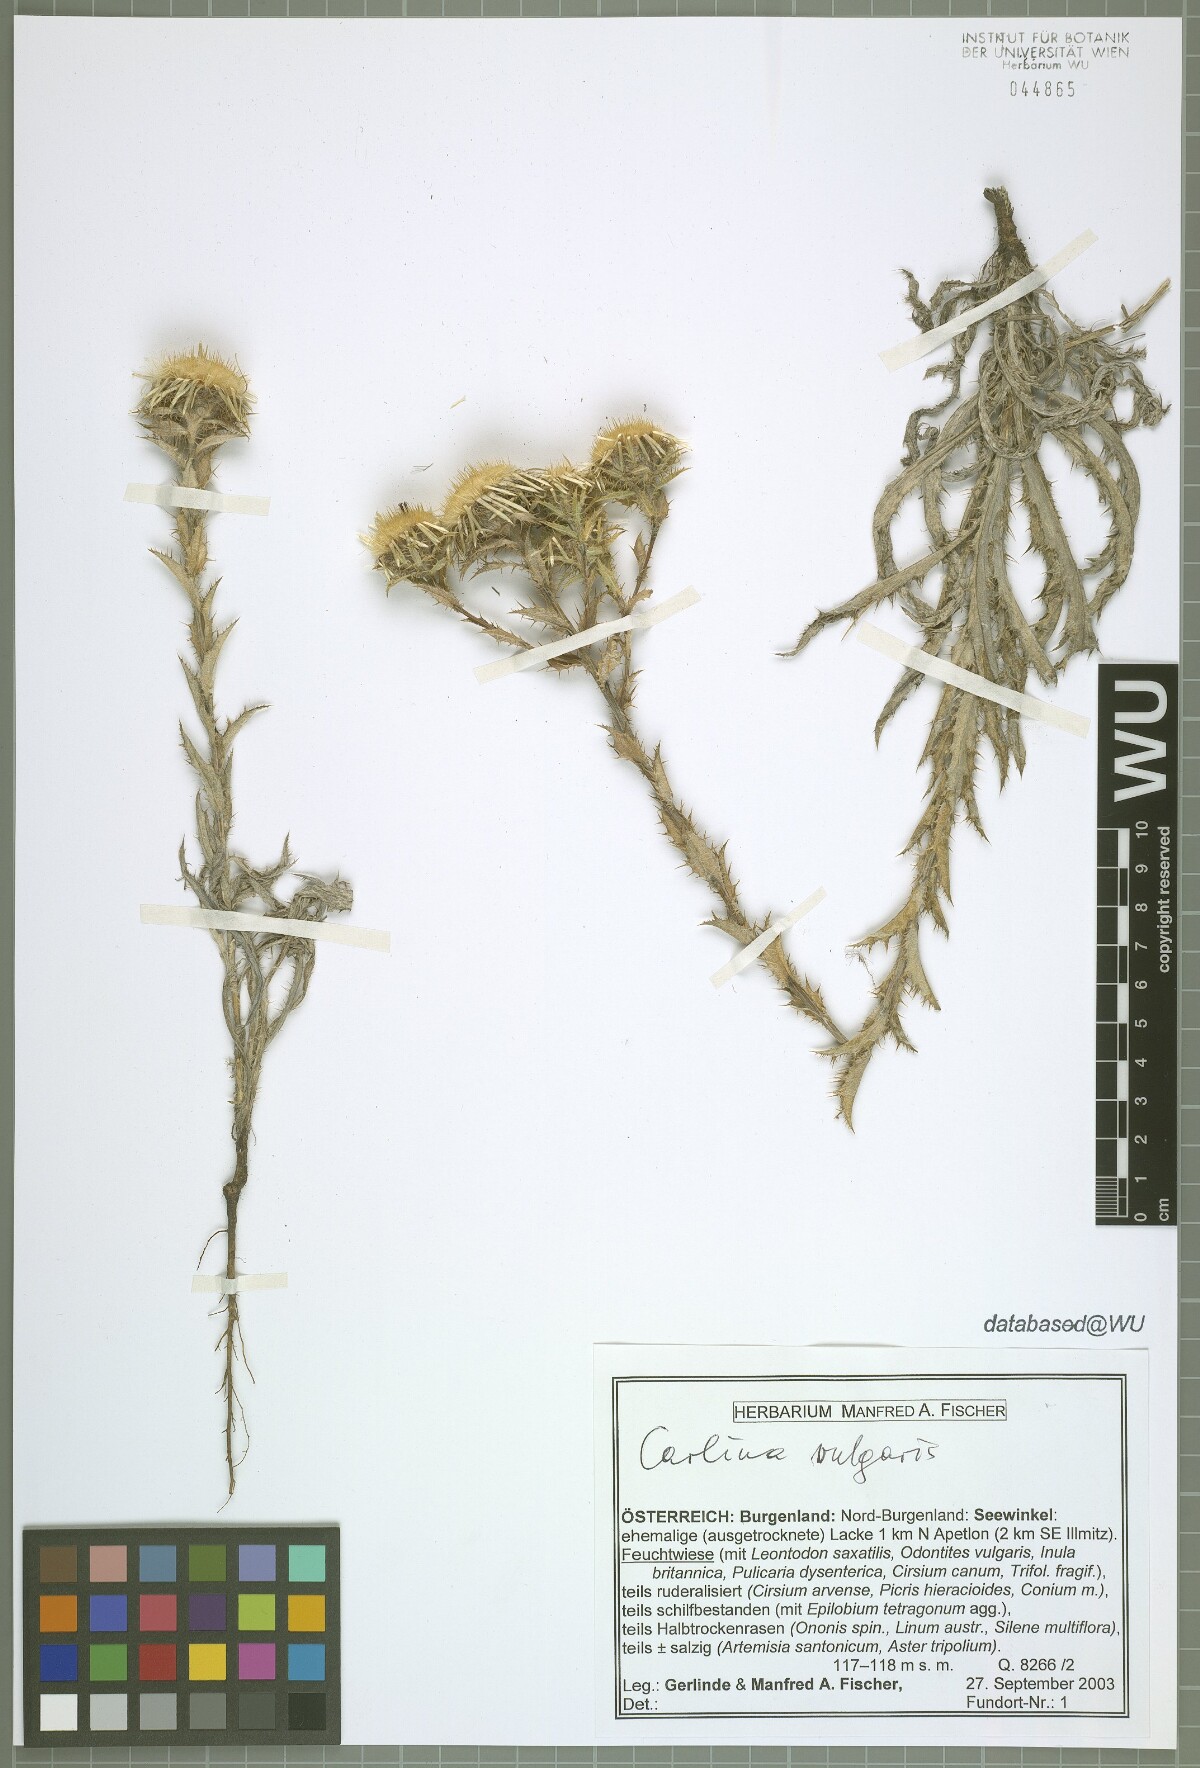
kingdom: Plantae
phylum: Tracheophyta
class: Magnoliopsida
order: Asterales
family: Asteraceae
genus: Carlina
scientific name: Carlina vulgaris
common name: Carline thistle
